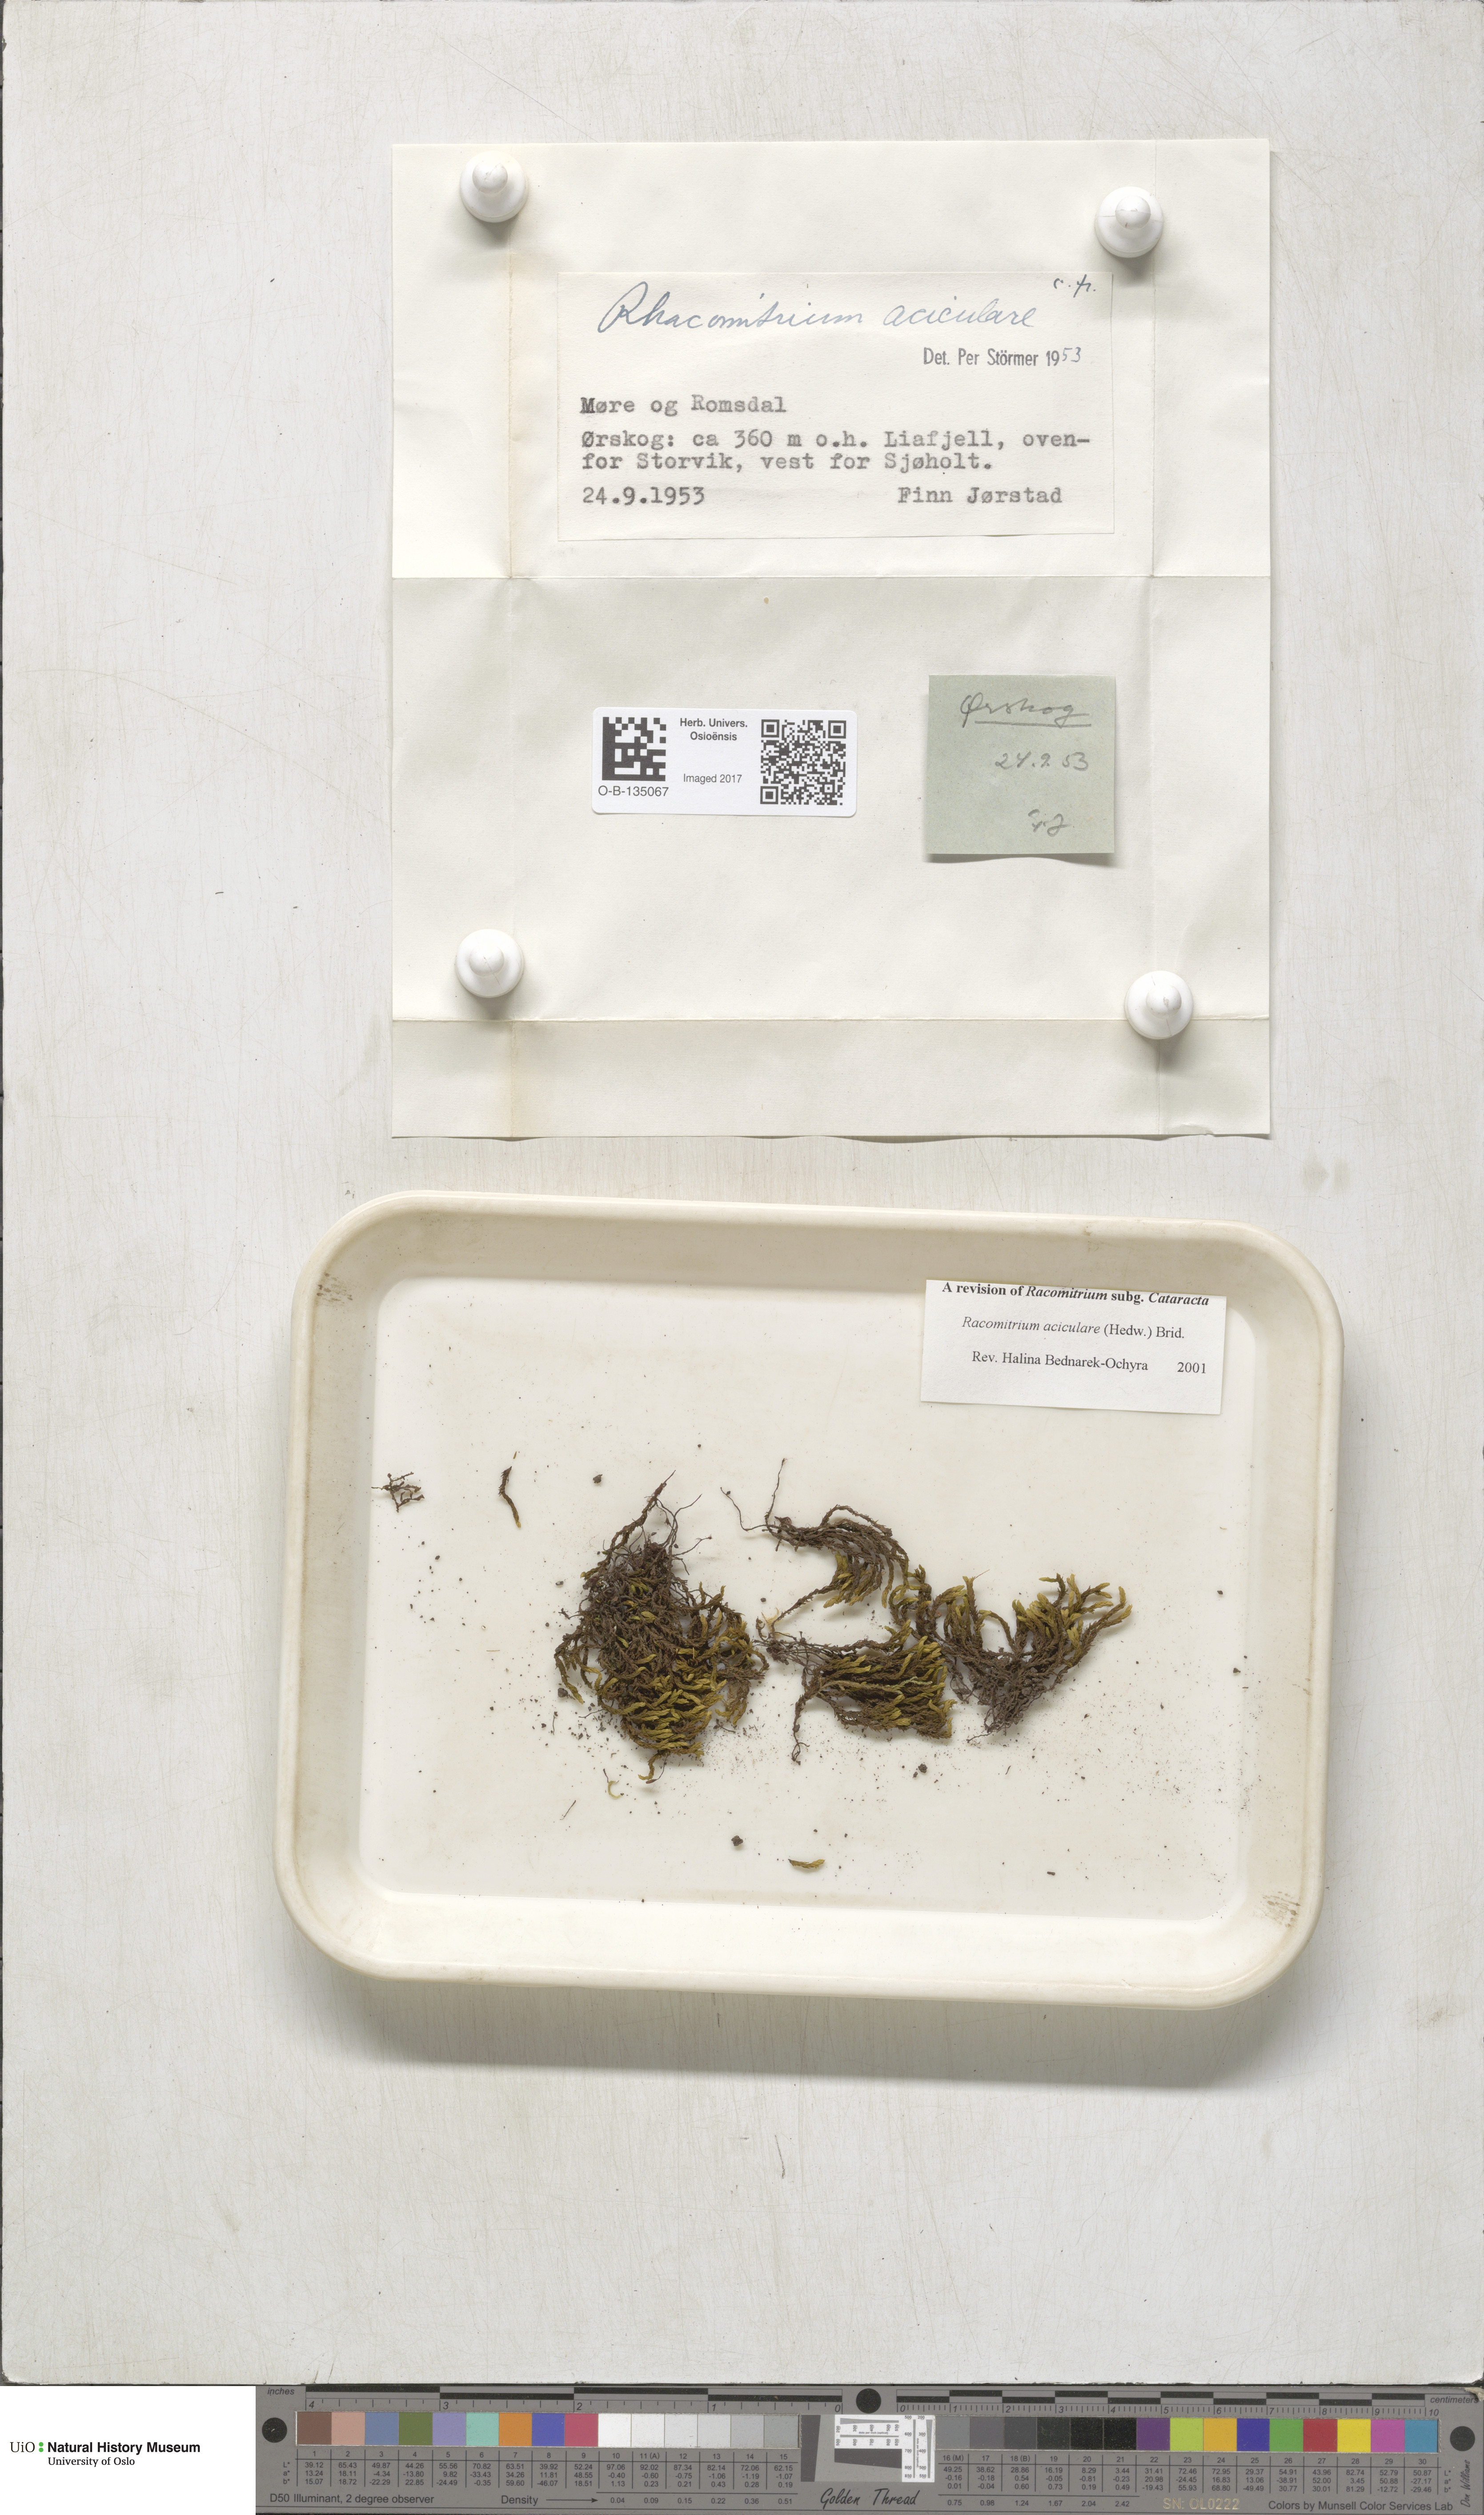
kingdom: Plantae
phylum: Bryophyta
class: Bryopsida
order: Grimmiales
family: Grimmiaceae
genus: Codriophorus
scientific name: Codriophorus acicularis
